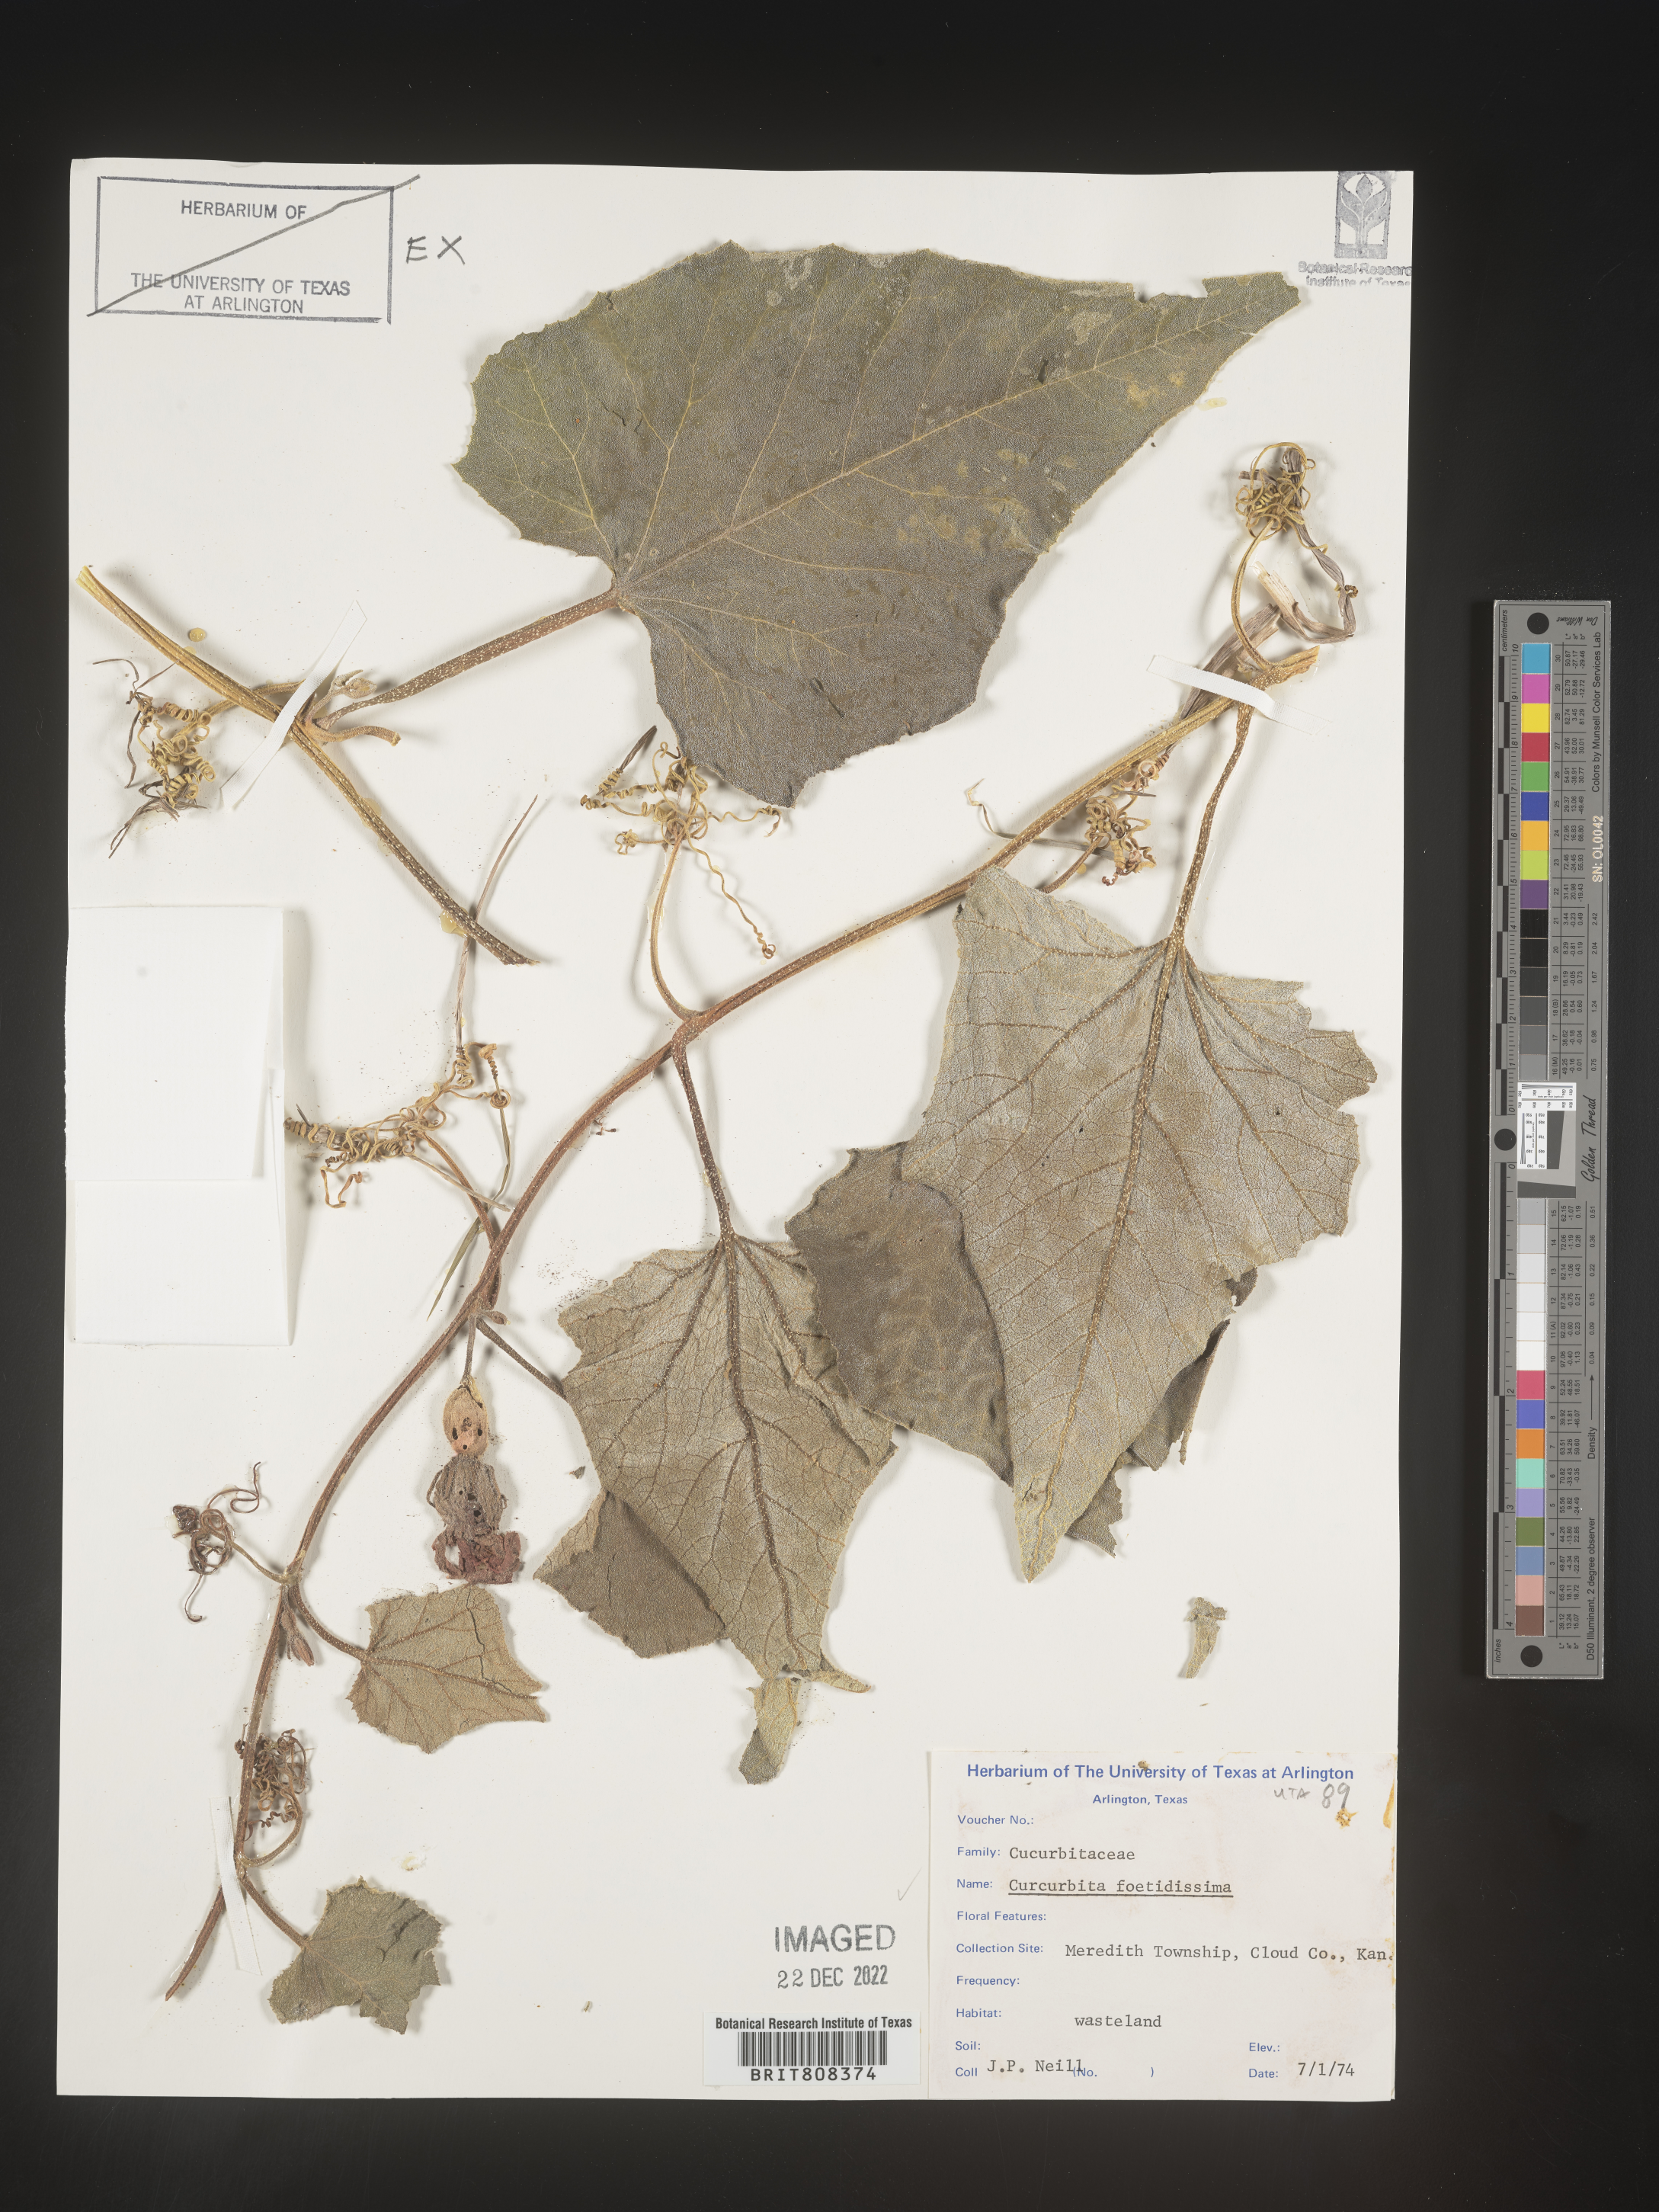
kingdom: Plantae
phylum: Tracheophyta
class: Magnoliopsida
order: Cucurbitales
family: Cucurbitaceae
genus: Cucurbita
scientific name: Cucurbita foetidissima
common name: Buffalo gourd
